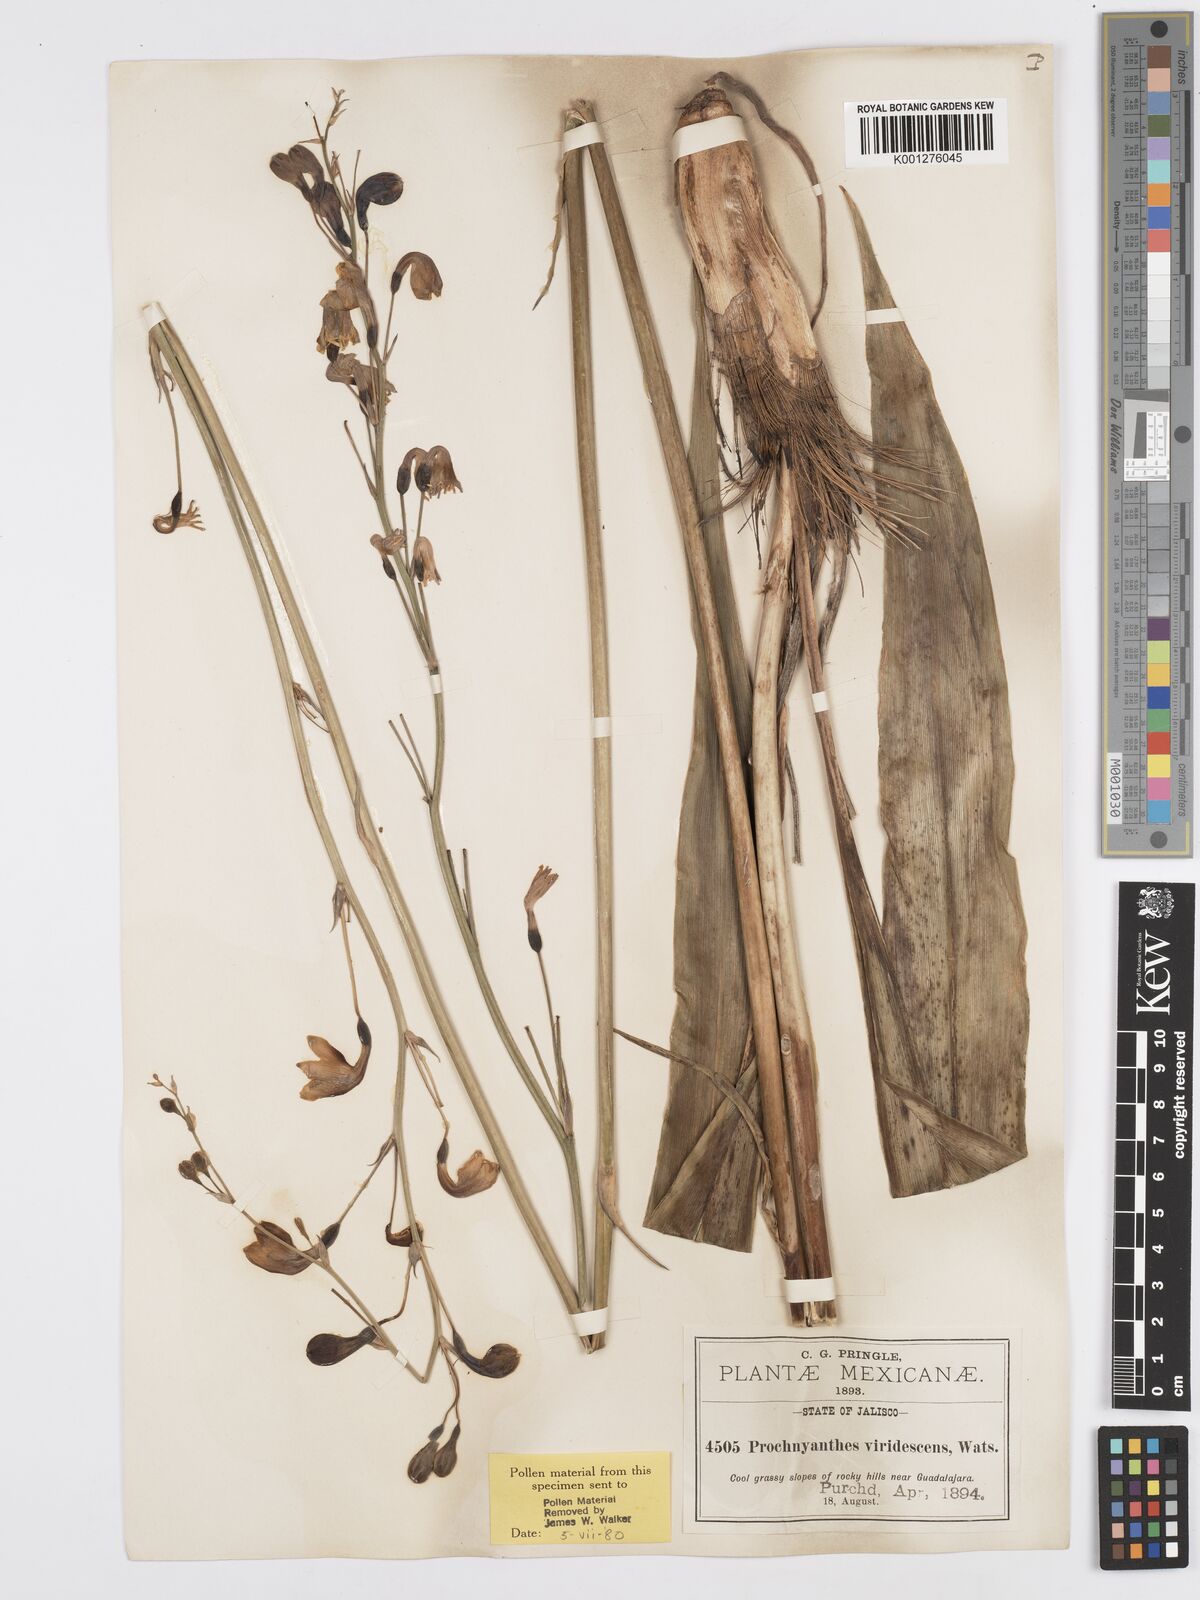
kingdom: Plantae
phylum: Tracheophyta
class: Liliopsida
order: Asparagales
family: Asparagaceae
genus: Agave
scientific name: Agave
